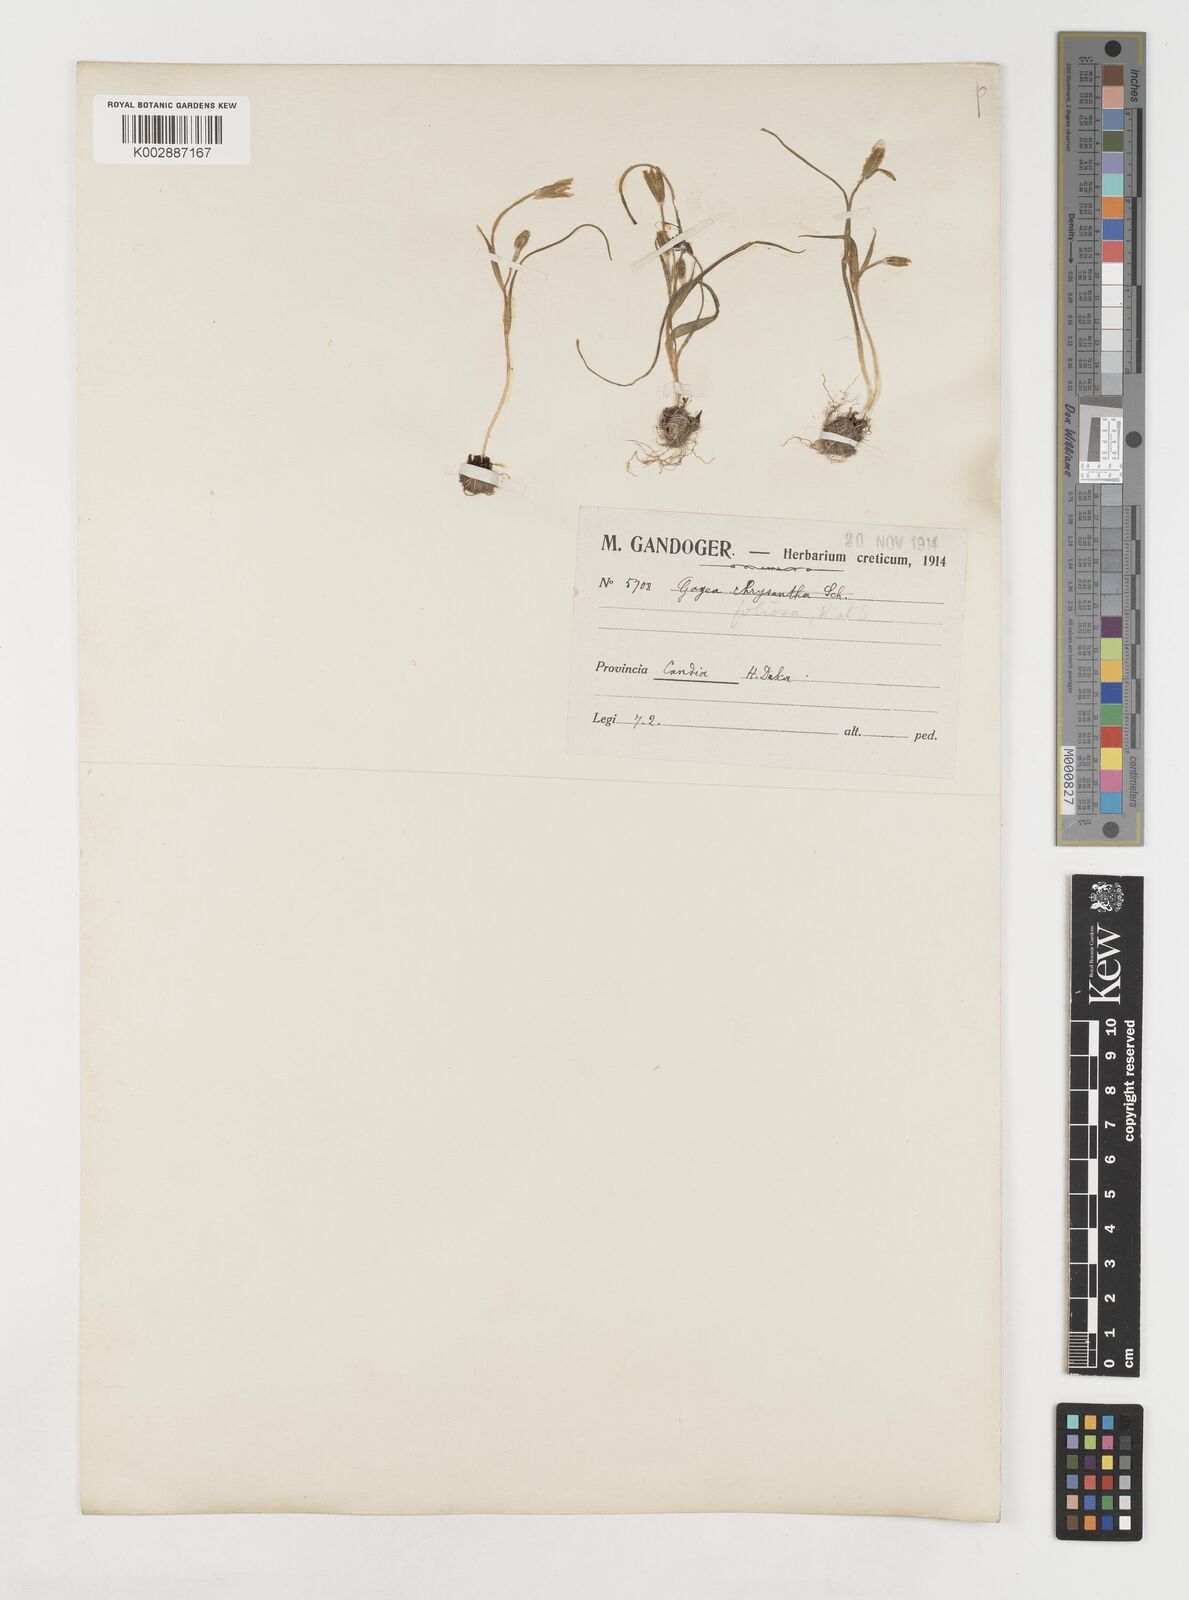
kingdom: Plantae
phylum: Tracheophyta
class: Liliopsida
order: Liliales
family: Liliaceae
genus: Gagea
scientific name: Gagea peduncularis
